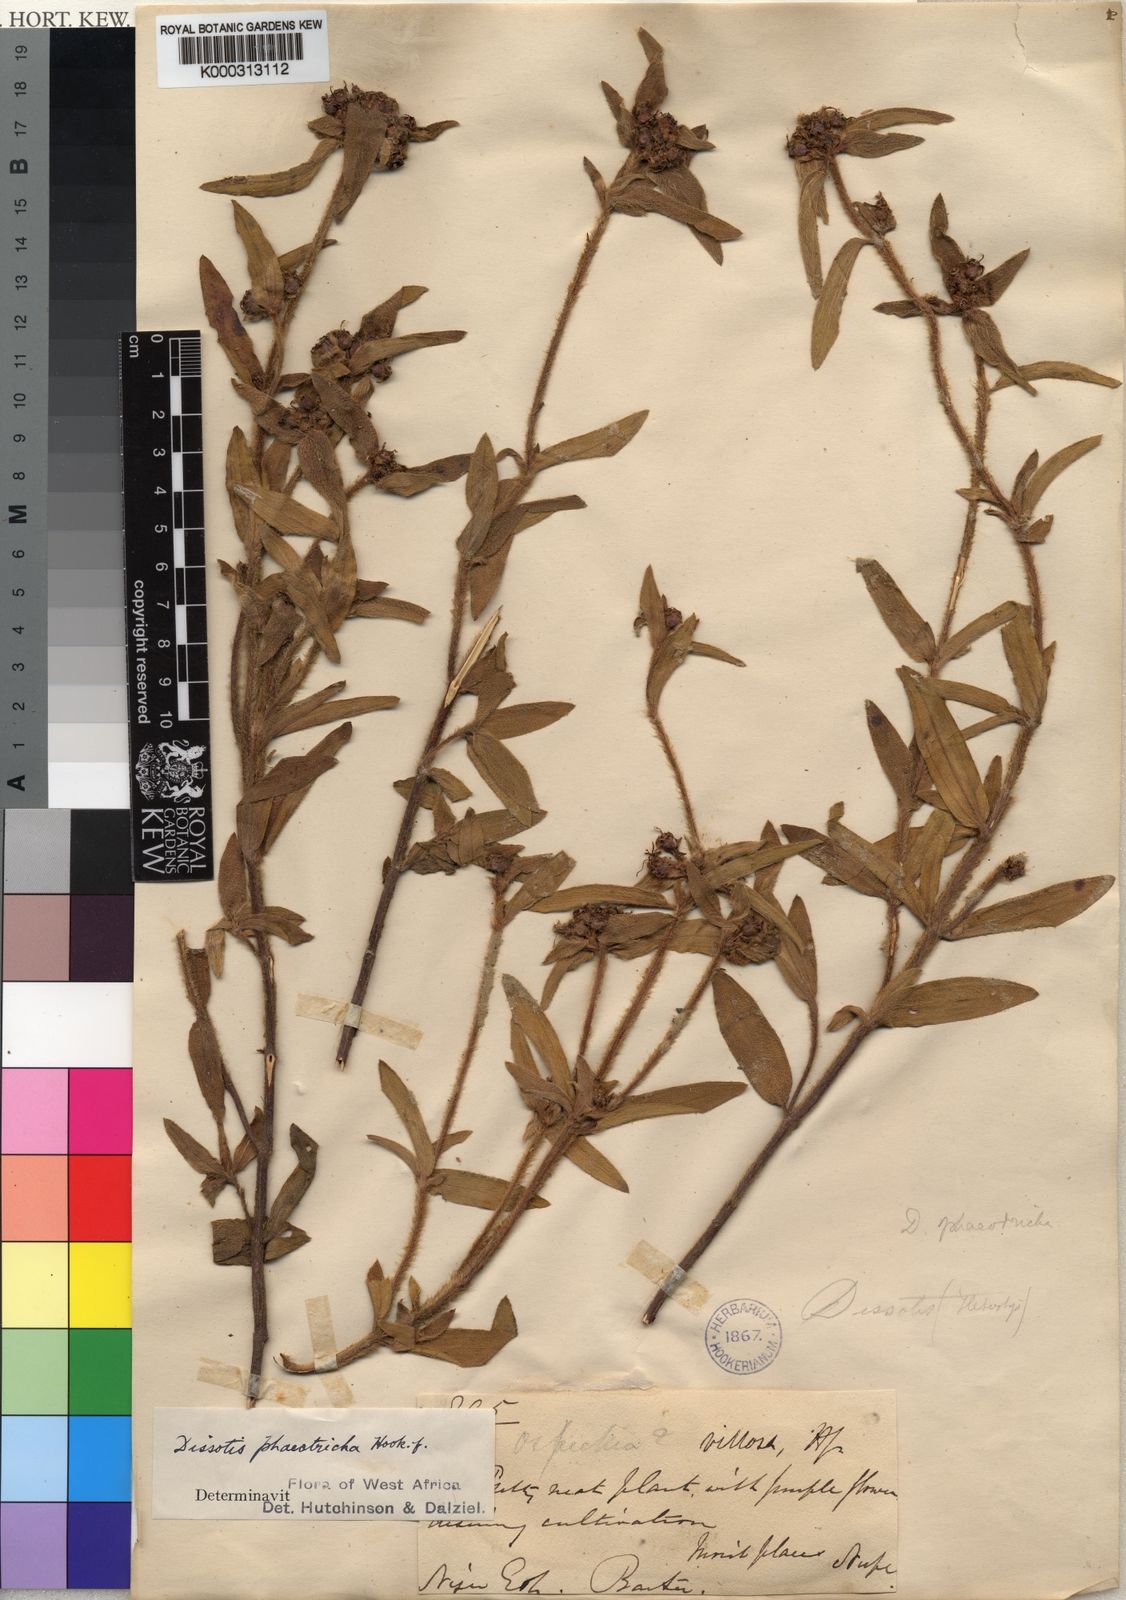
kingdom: Plantae
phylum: Tracheophyta
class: Magnoliopsida
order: Myrtales
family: Melastomataceae
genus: Antherotoma
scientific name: Antherotoma
